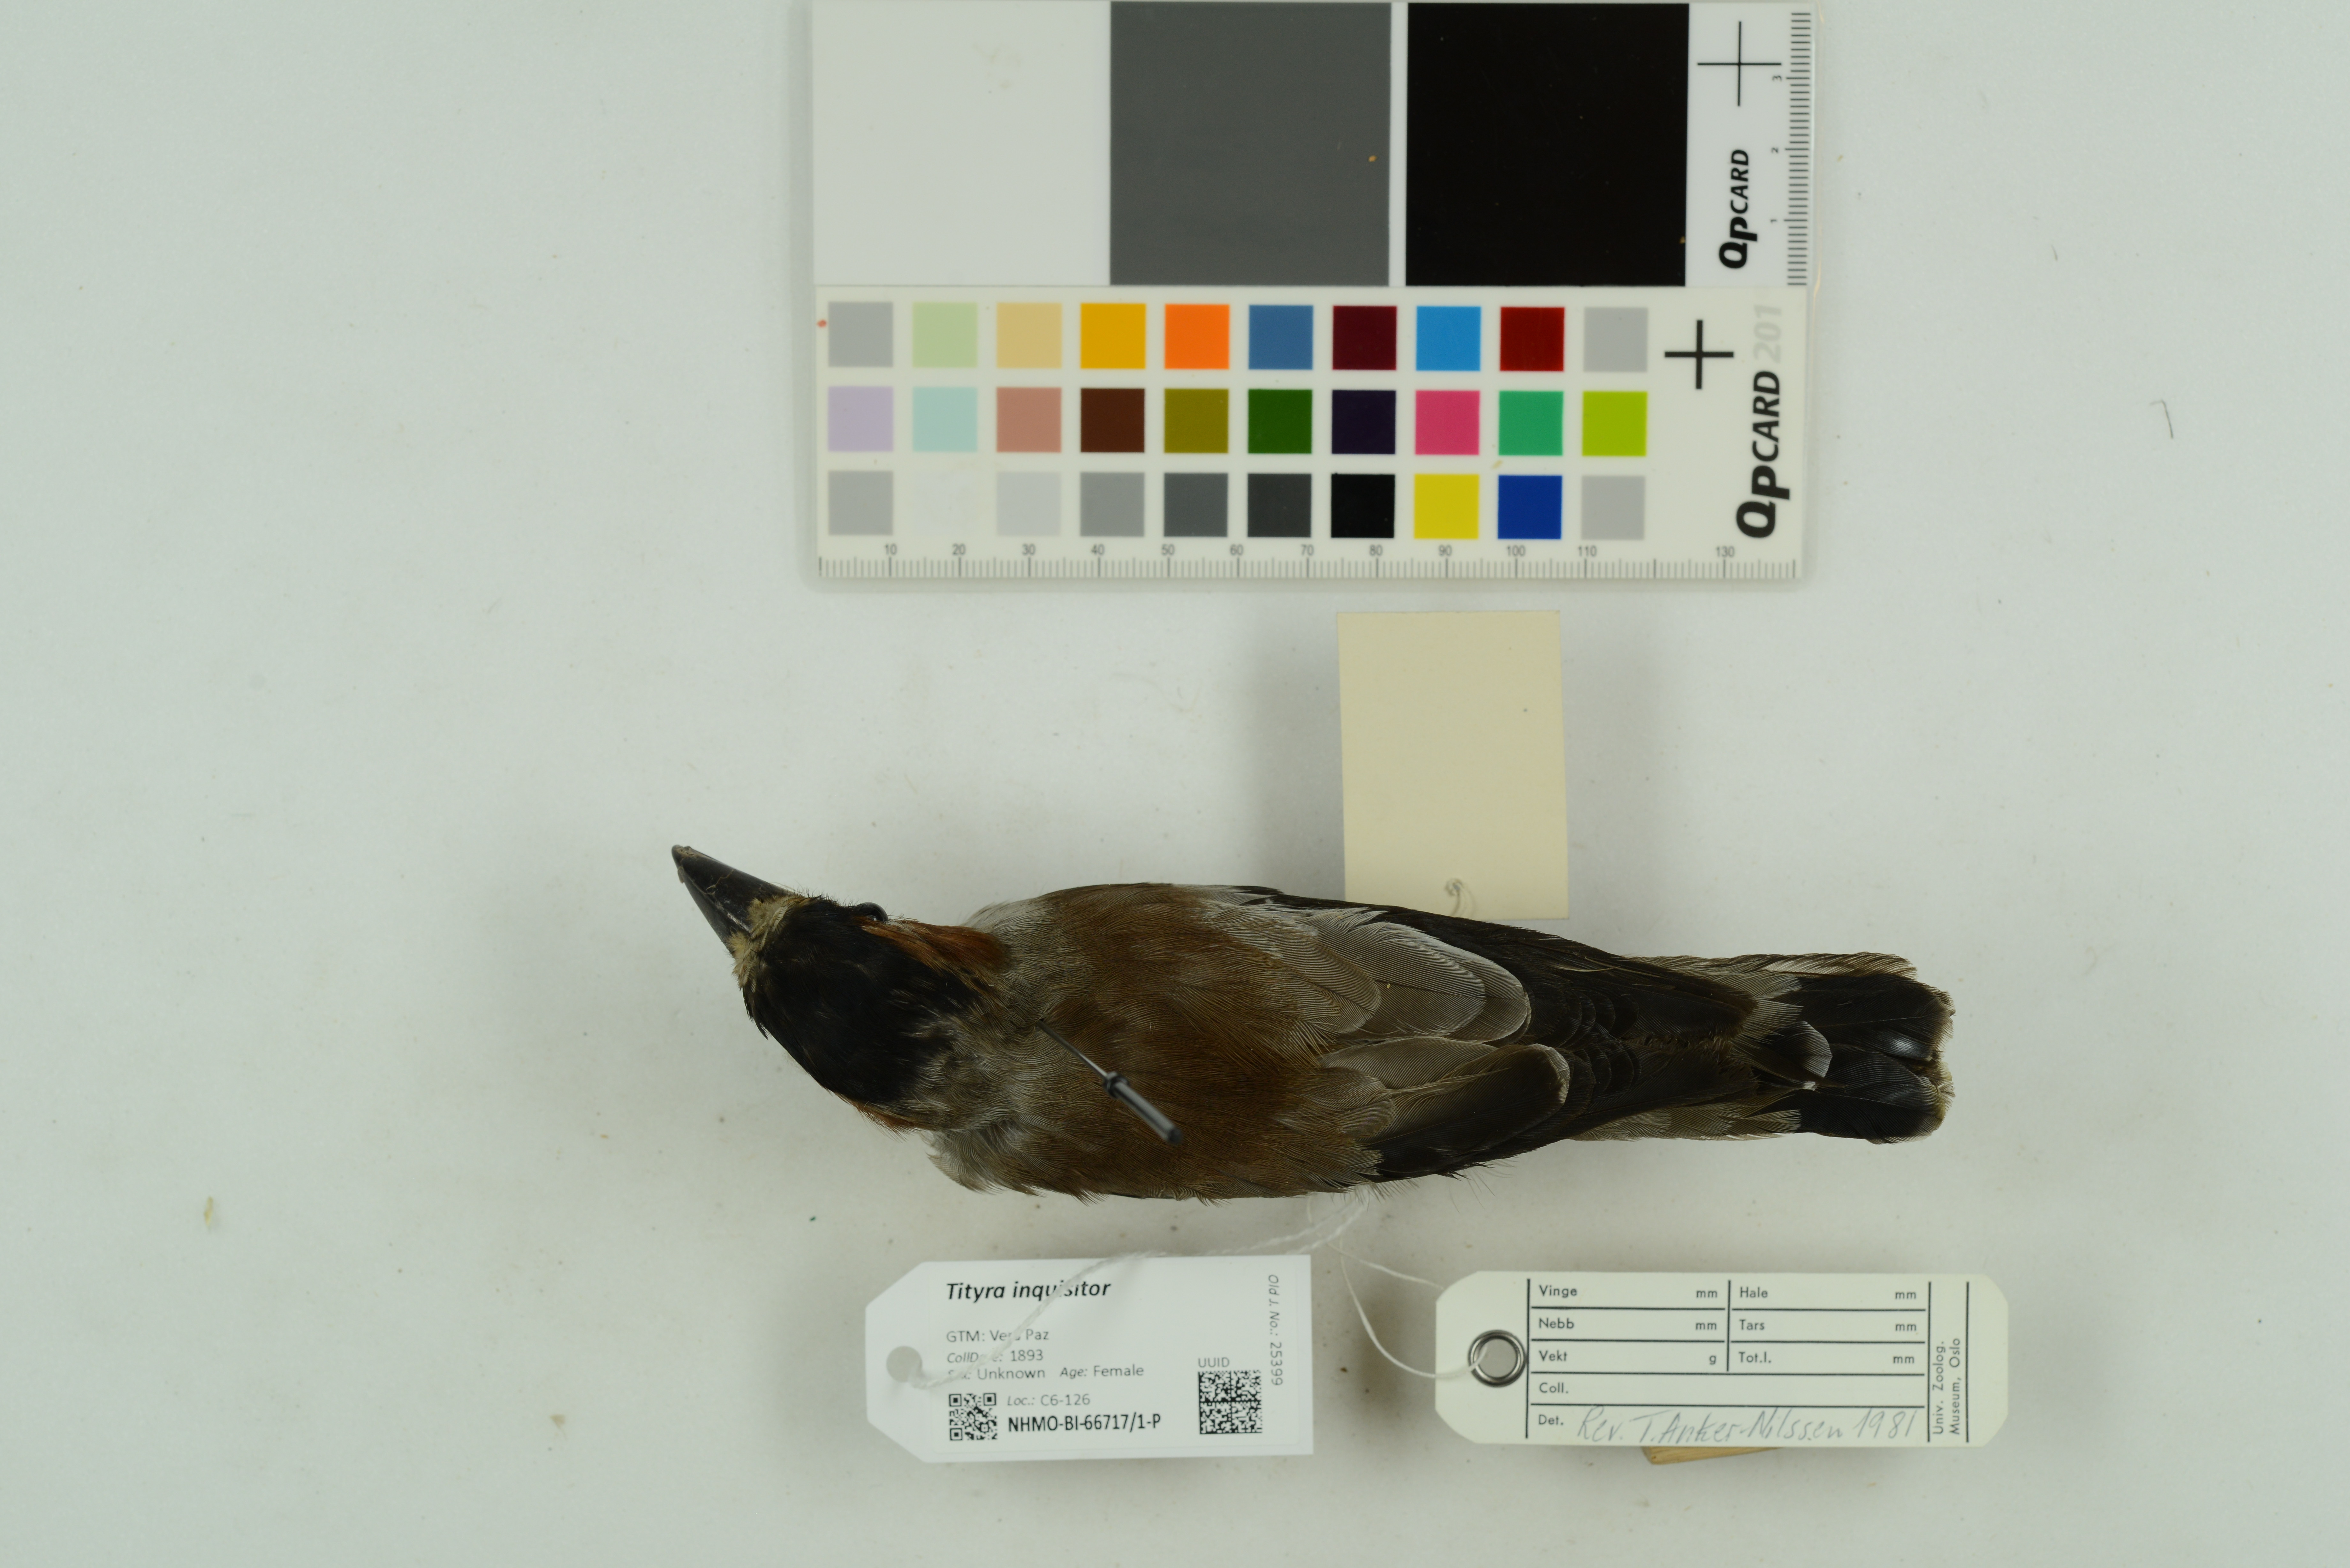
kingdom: Animalia
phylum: Chordata
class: Aves
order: Passeriformes
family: Cotingidae
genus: Tityra
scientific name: Tityra inquisitor
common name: Black-crowned tityra
